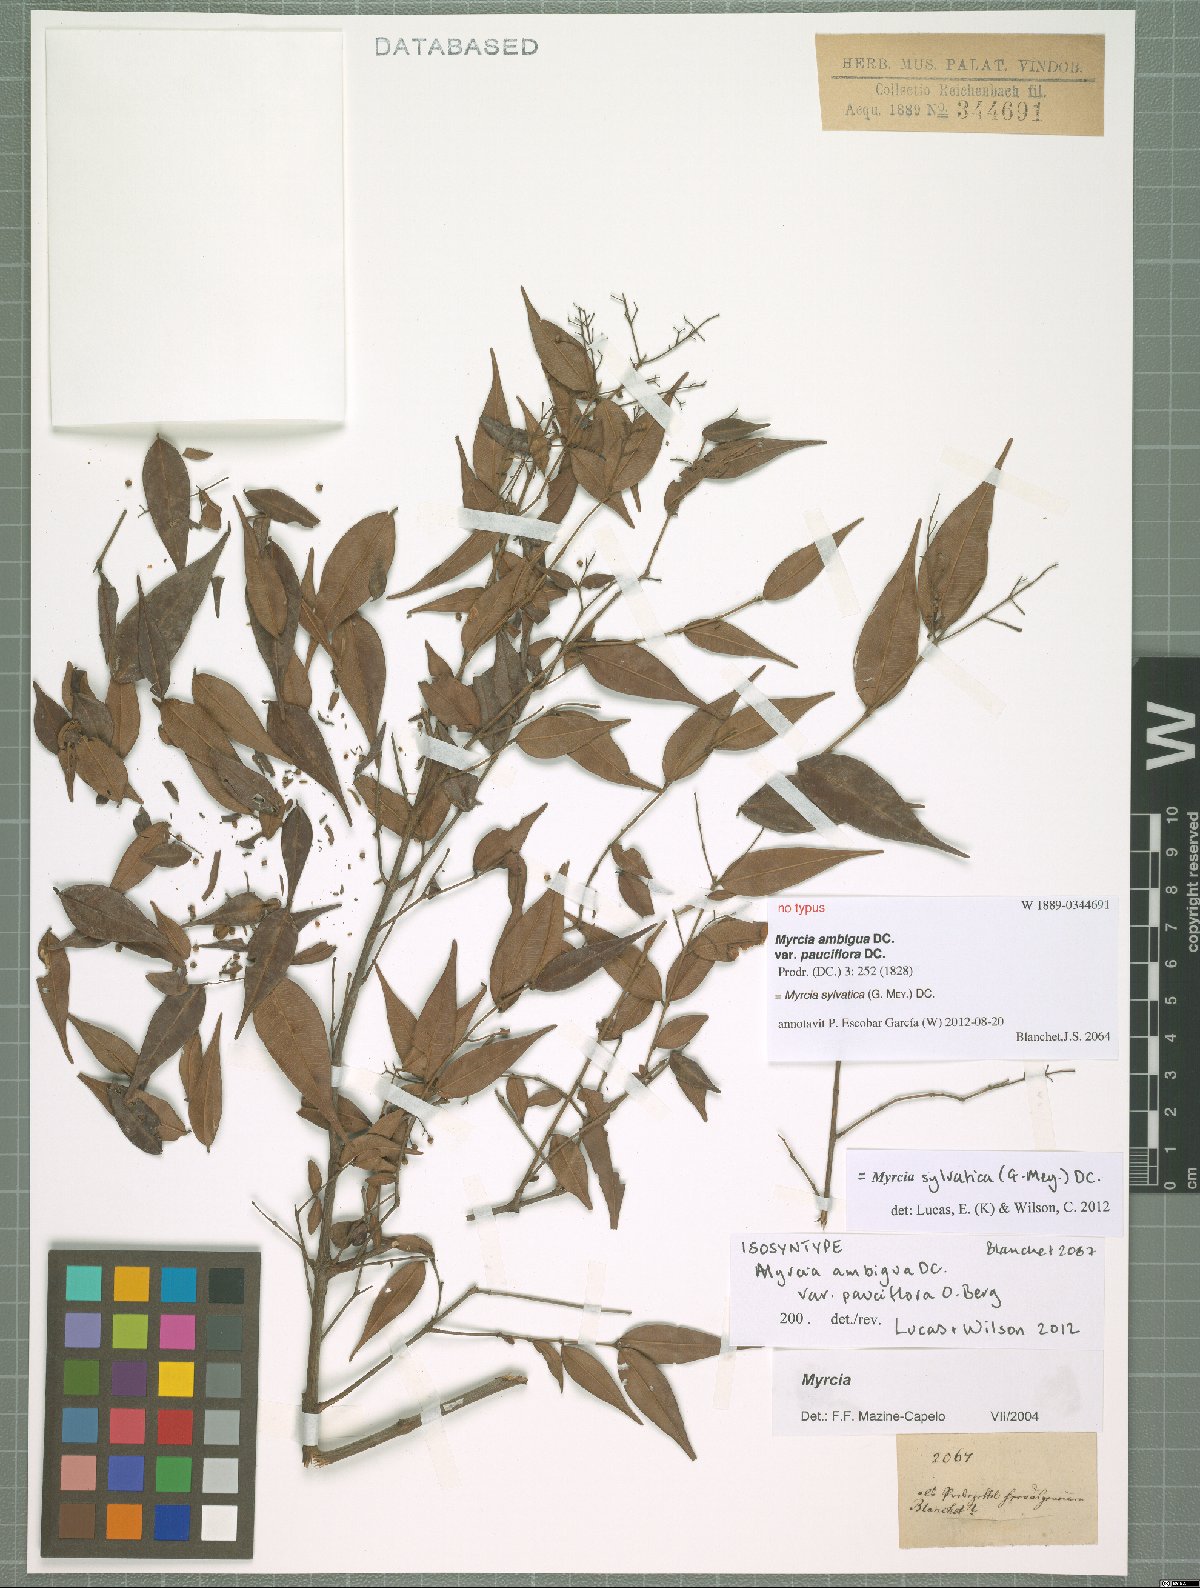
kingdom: Plantae
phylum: Tracheophyta
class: Magnoliopsida
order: Myrtales
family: Myrtaceae
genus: Myrcia
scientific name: Myrcia sylvatica
